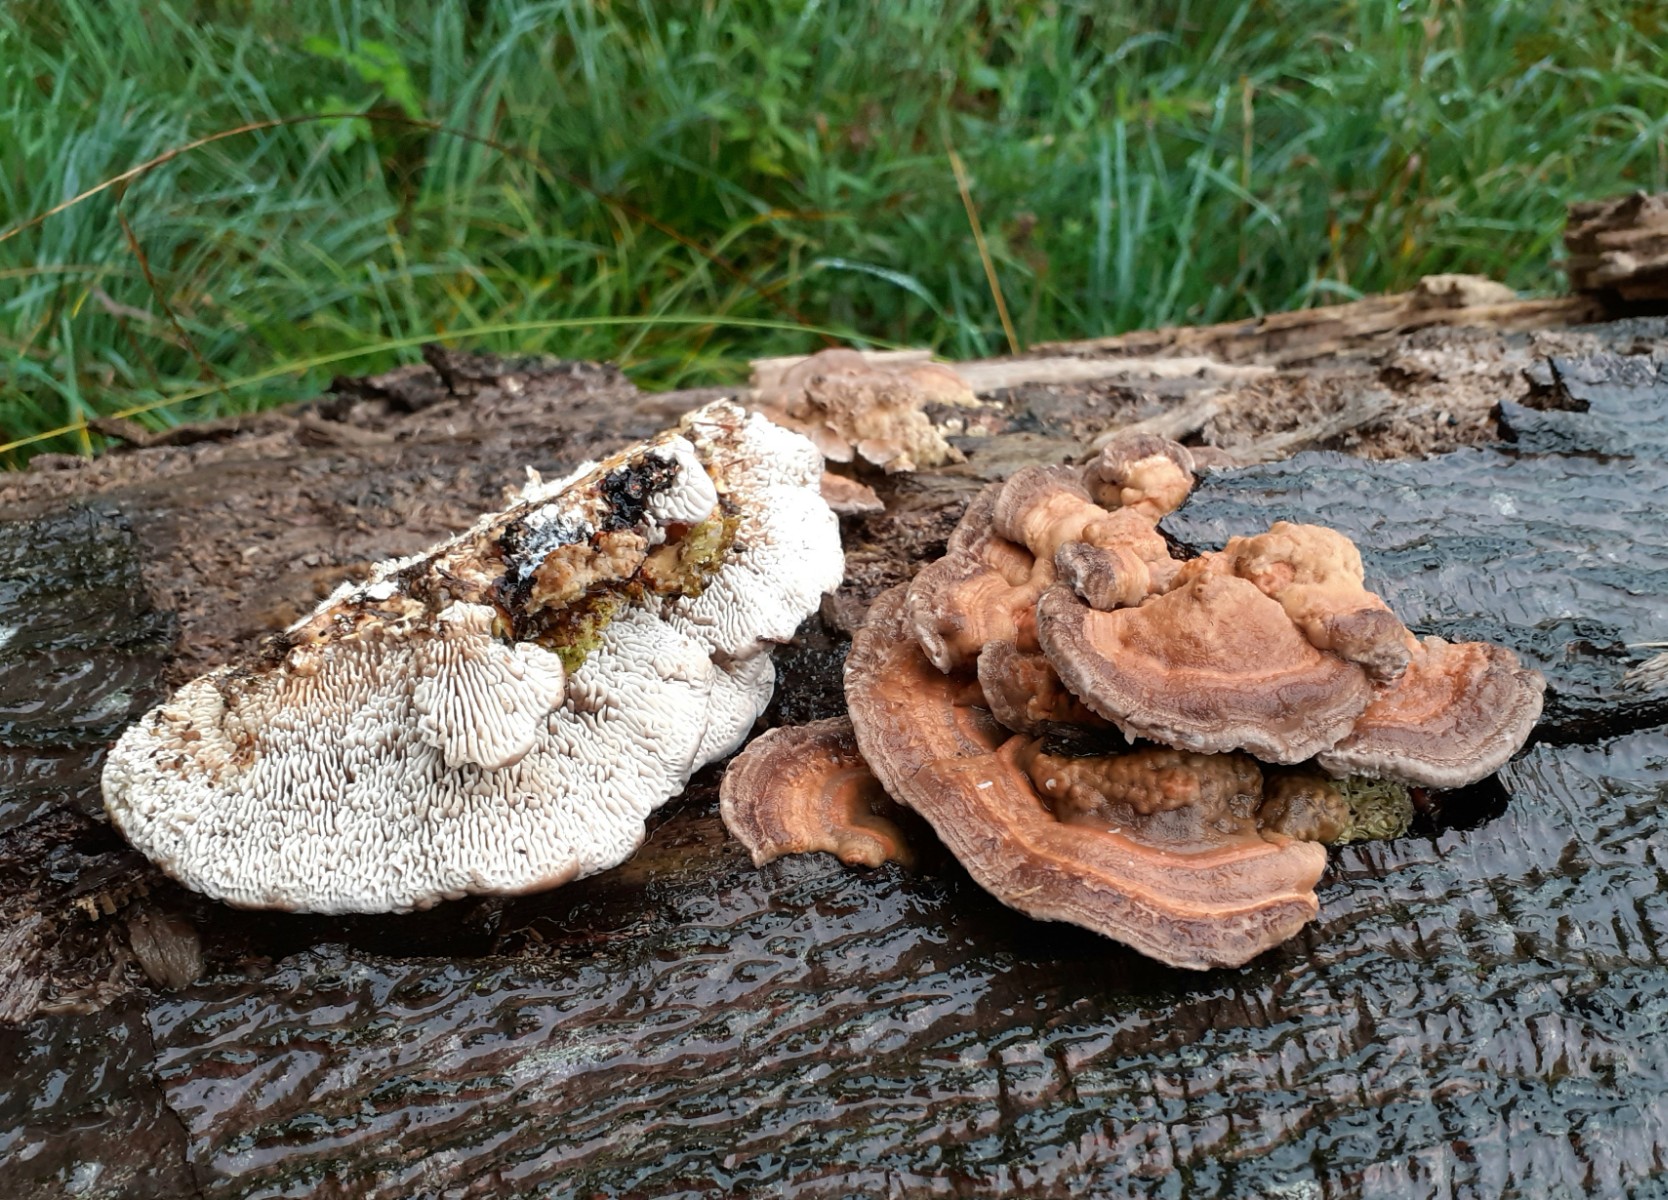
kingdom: Fungi
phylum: Basidiomycota
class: Agaricomycetes
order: Polyporales
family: Polyporaceae
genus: Lenzites
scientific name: Lenzites betulinus
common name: birke-læderporesvamp
